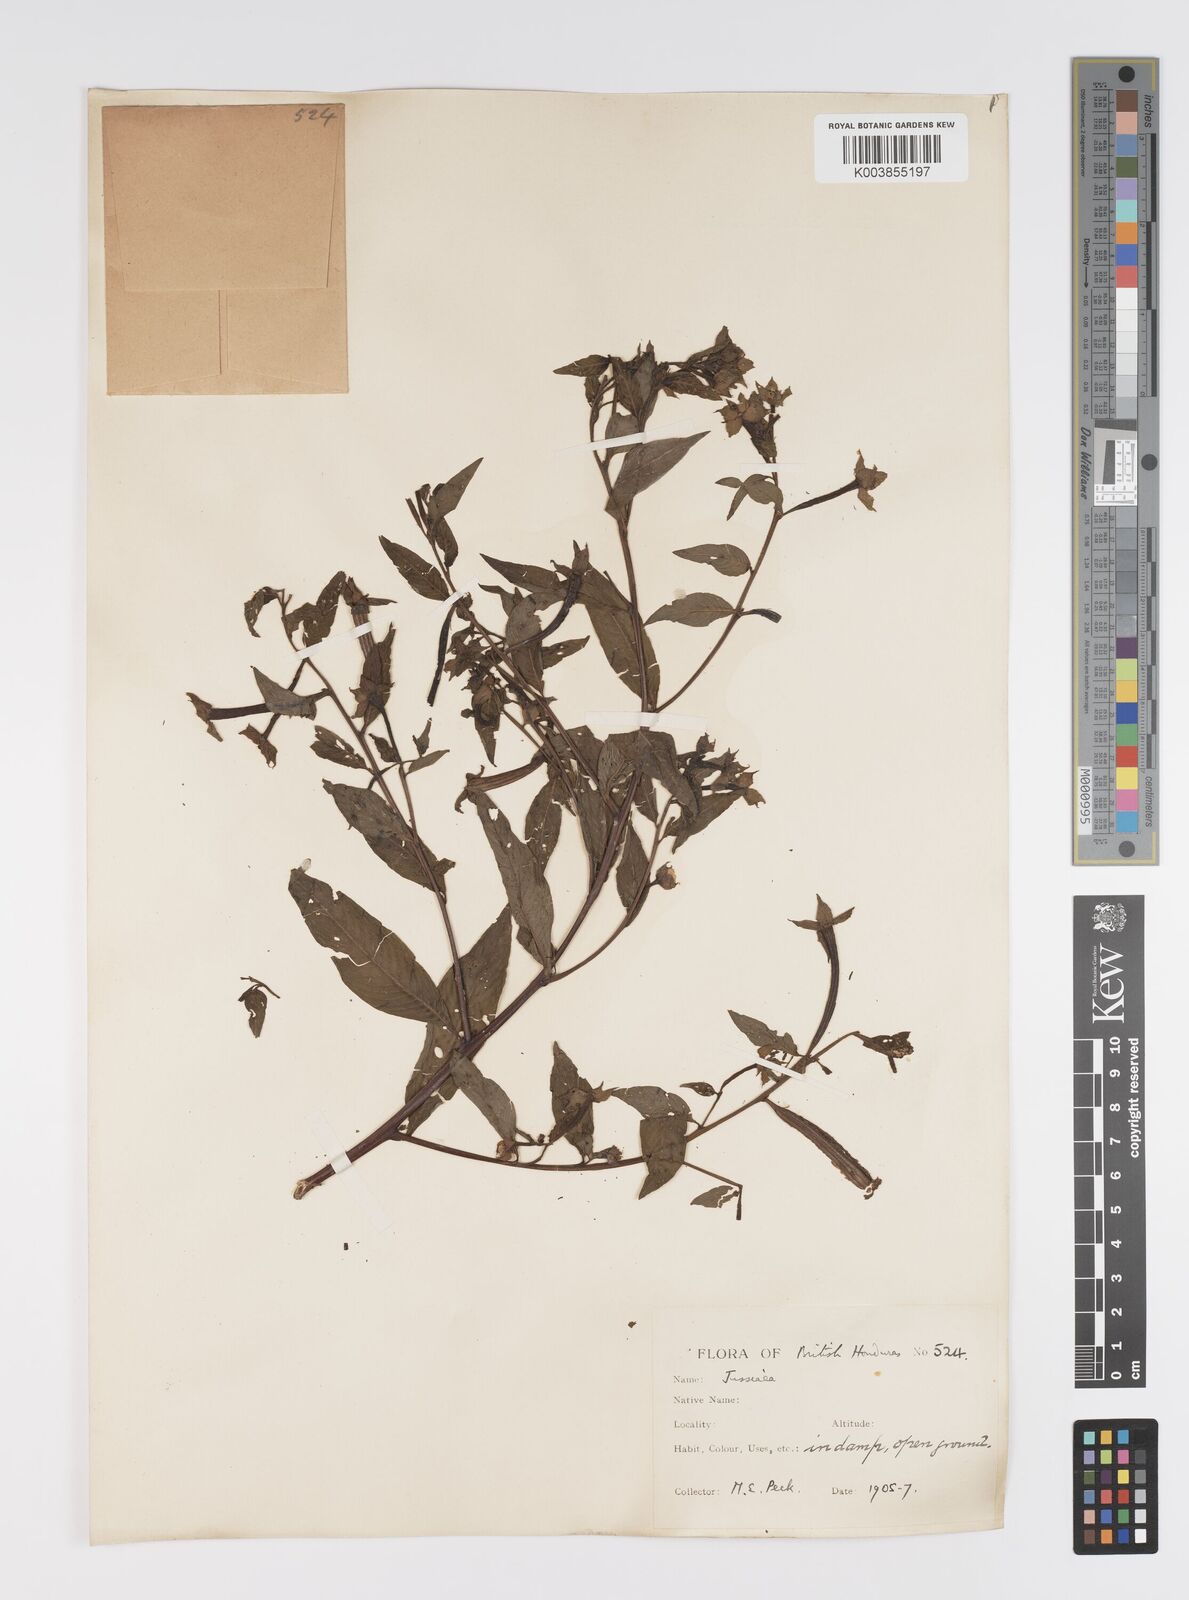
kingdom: Plantae
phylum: Tracheophyta
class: Magnoliopsida
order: Myrtales
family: Onagraceae
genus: Ludwigia
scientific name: Ludwigia
